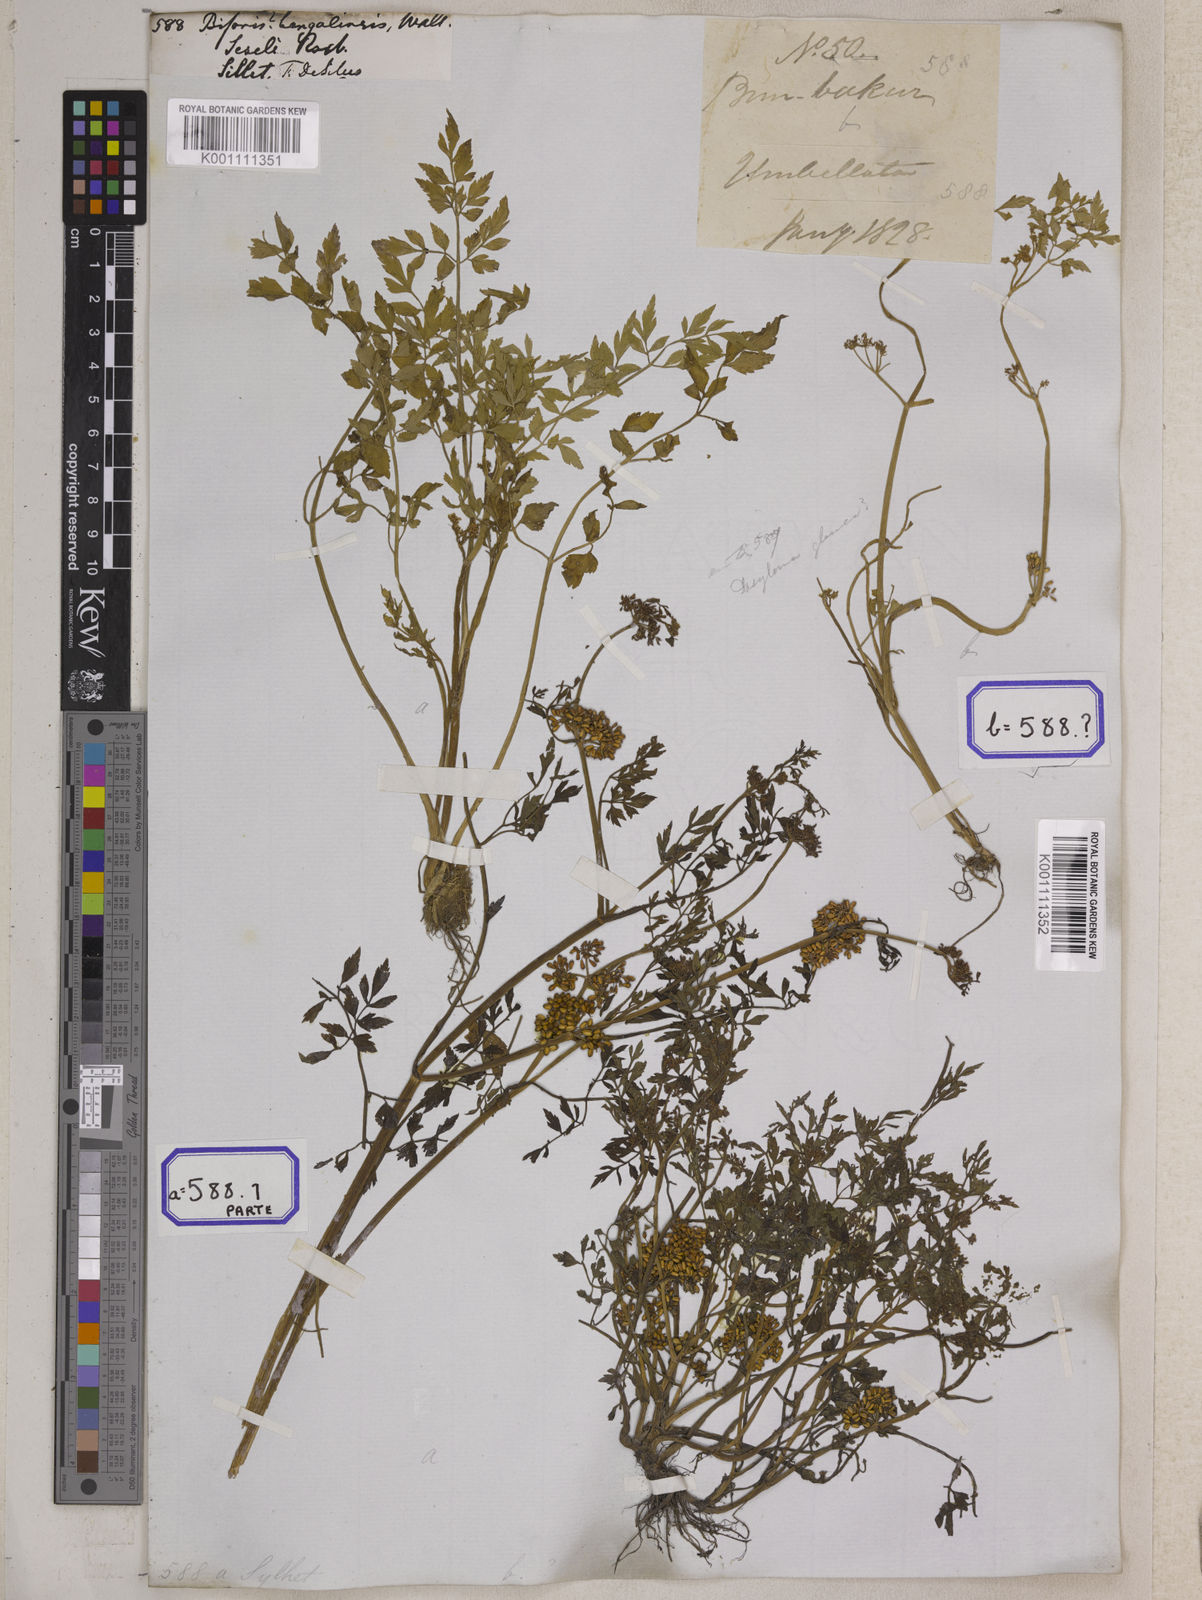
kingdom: Plantae
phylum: Tracheophyta
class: Magnoliopsida
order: Apiales
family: Apiaceae
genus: Bifora
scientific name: Bifora
